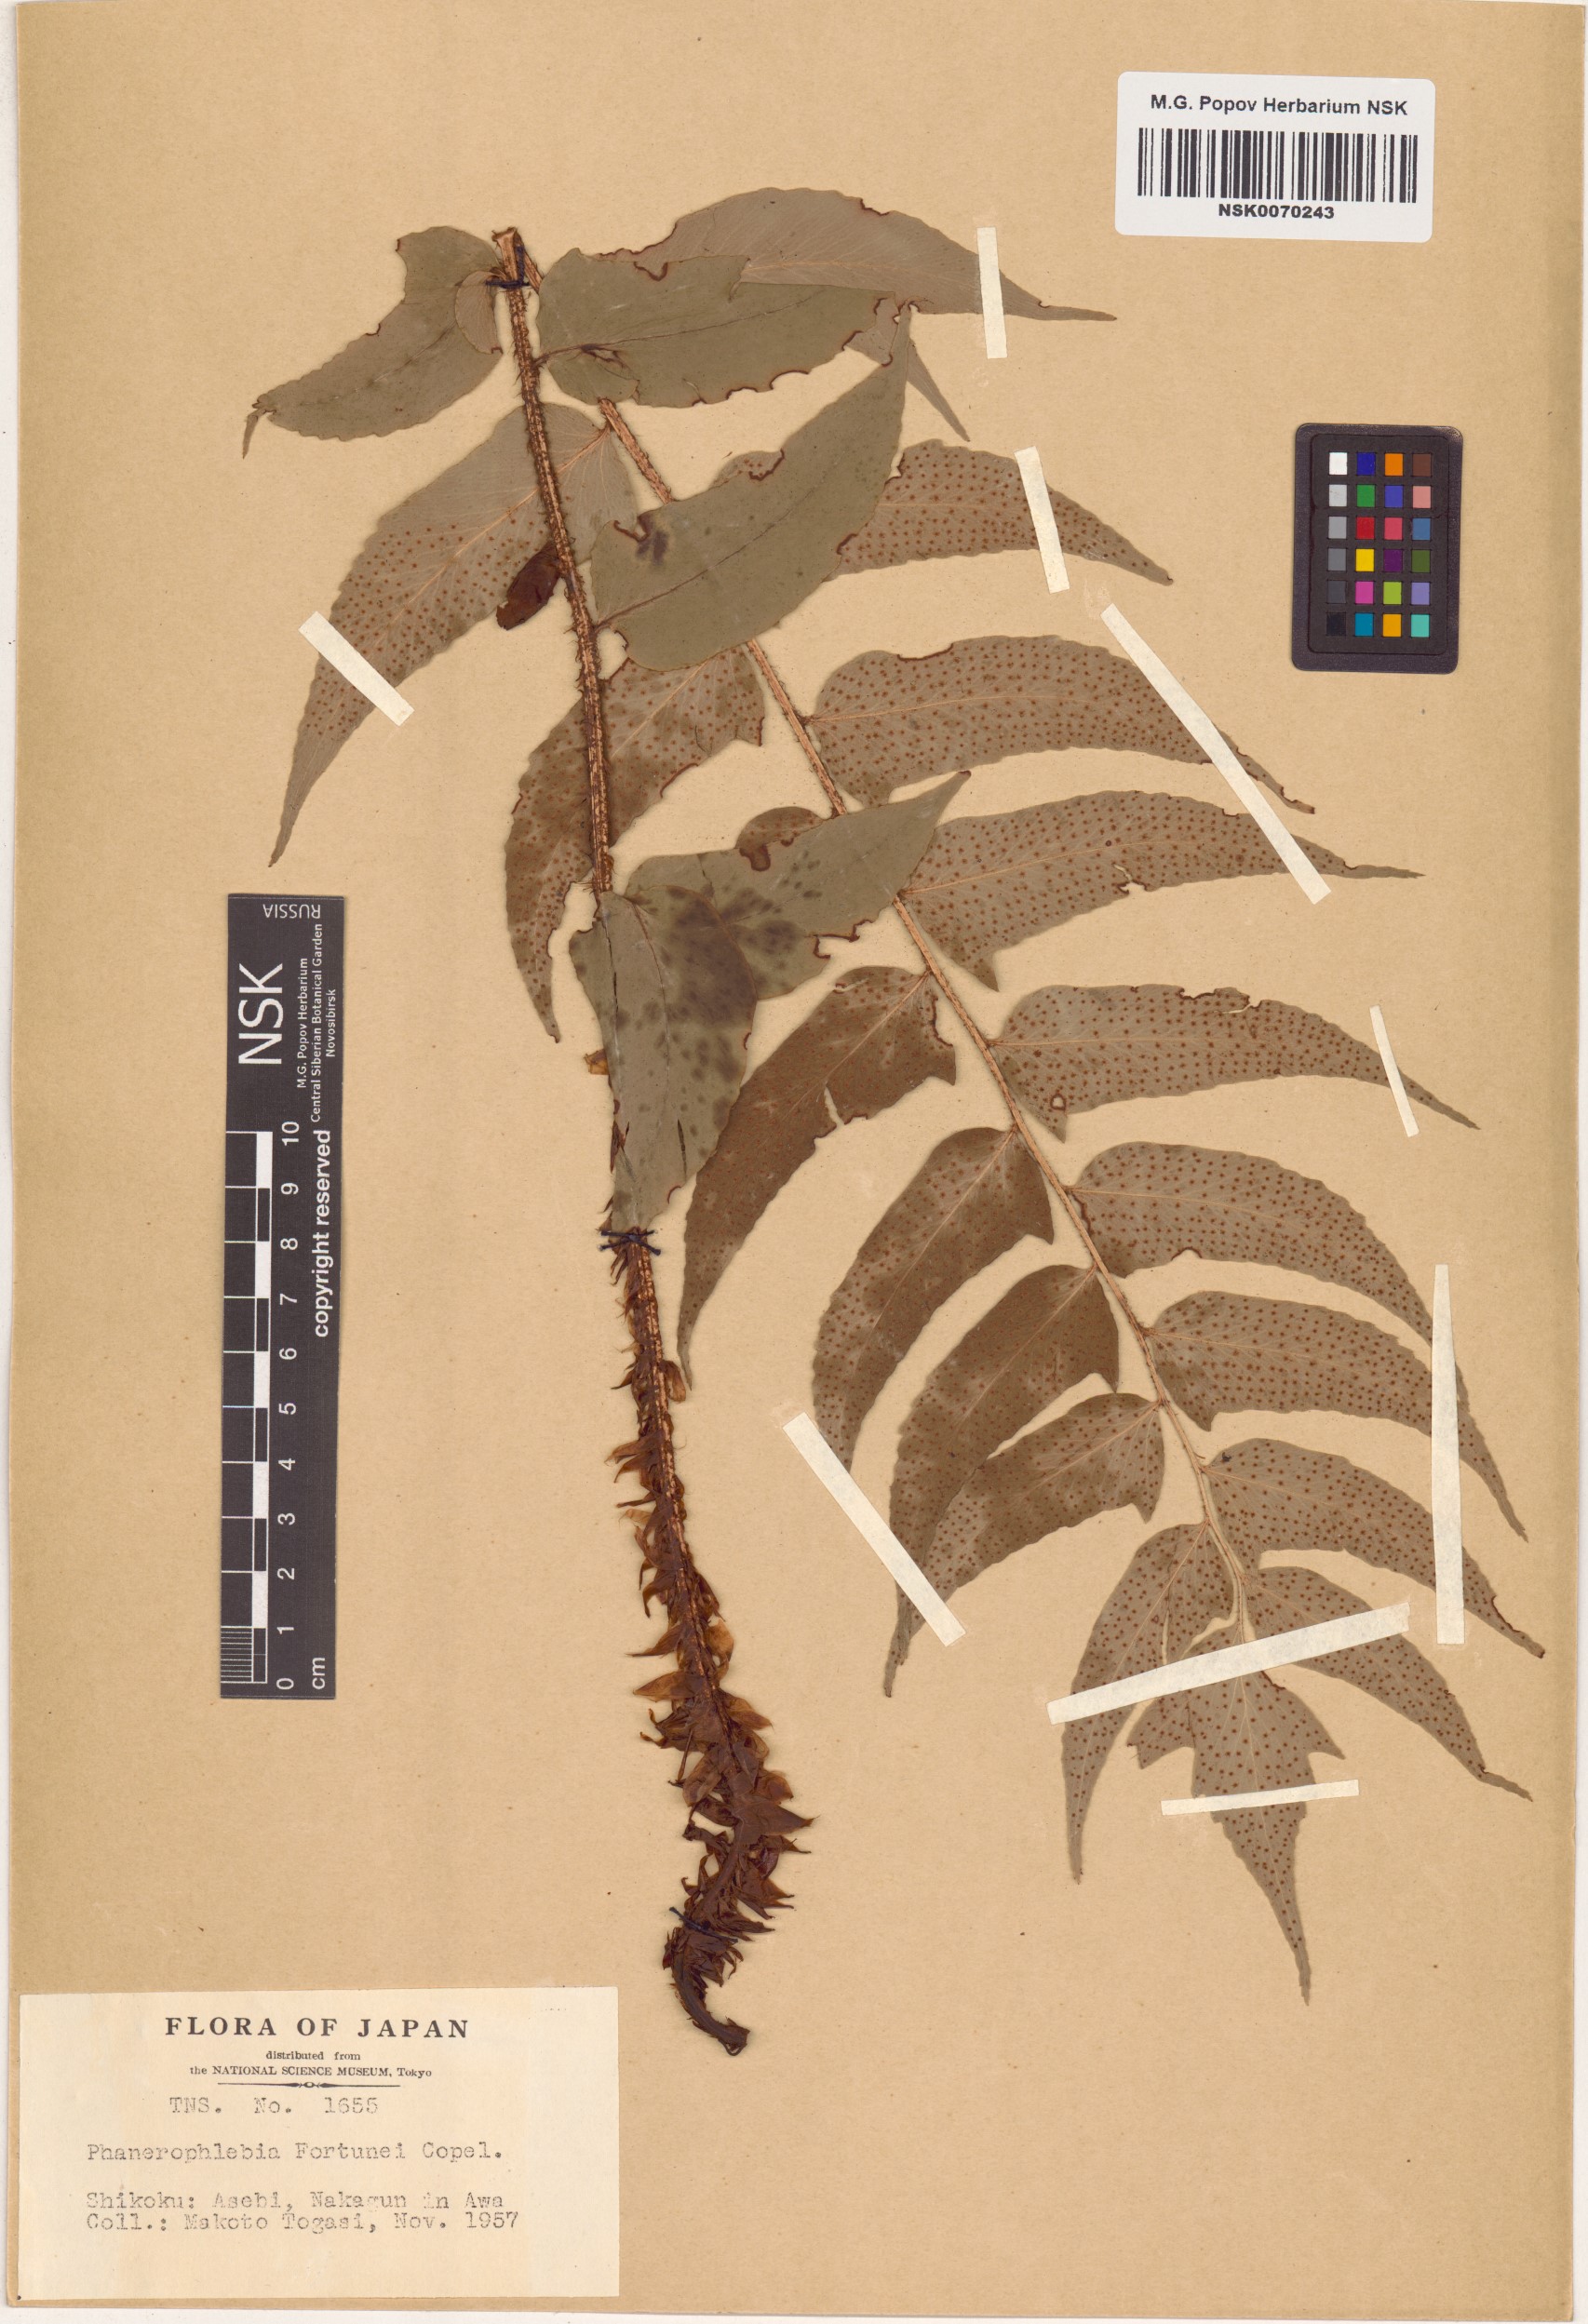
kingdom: Plantae
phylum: Tracheophyta
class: Polypodiopsida
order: Polypodiales
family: Dryopteridaceae
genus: Cyrtomium
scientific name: Cyrtomium fortunei
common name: Asian netvein hollyfern
